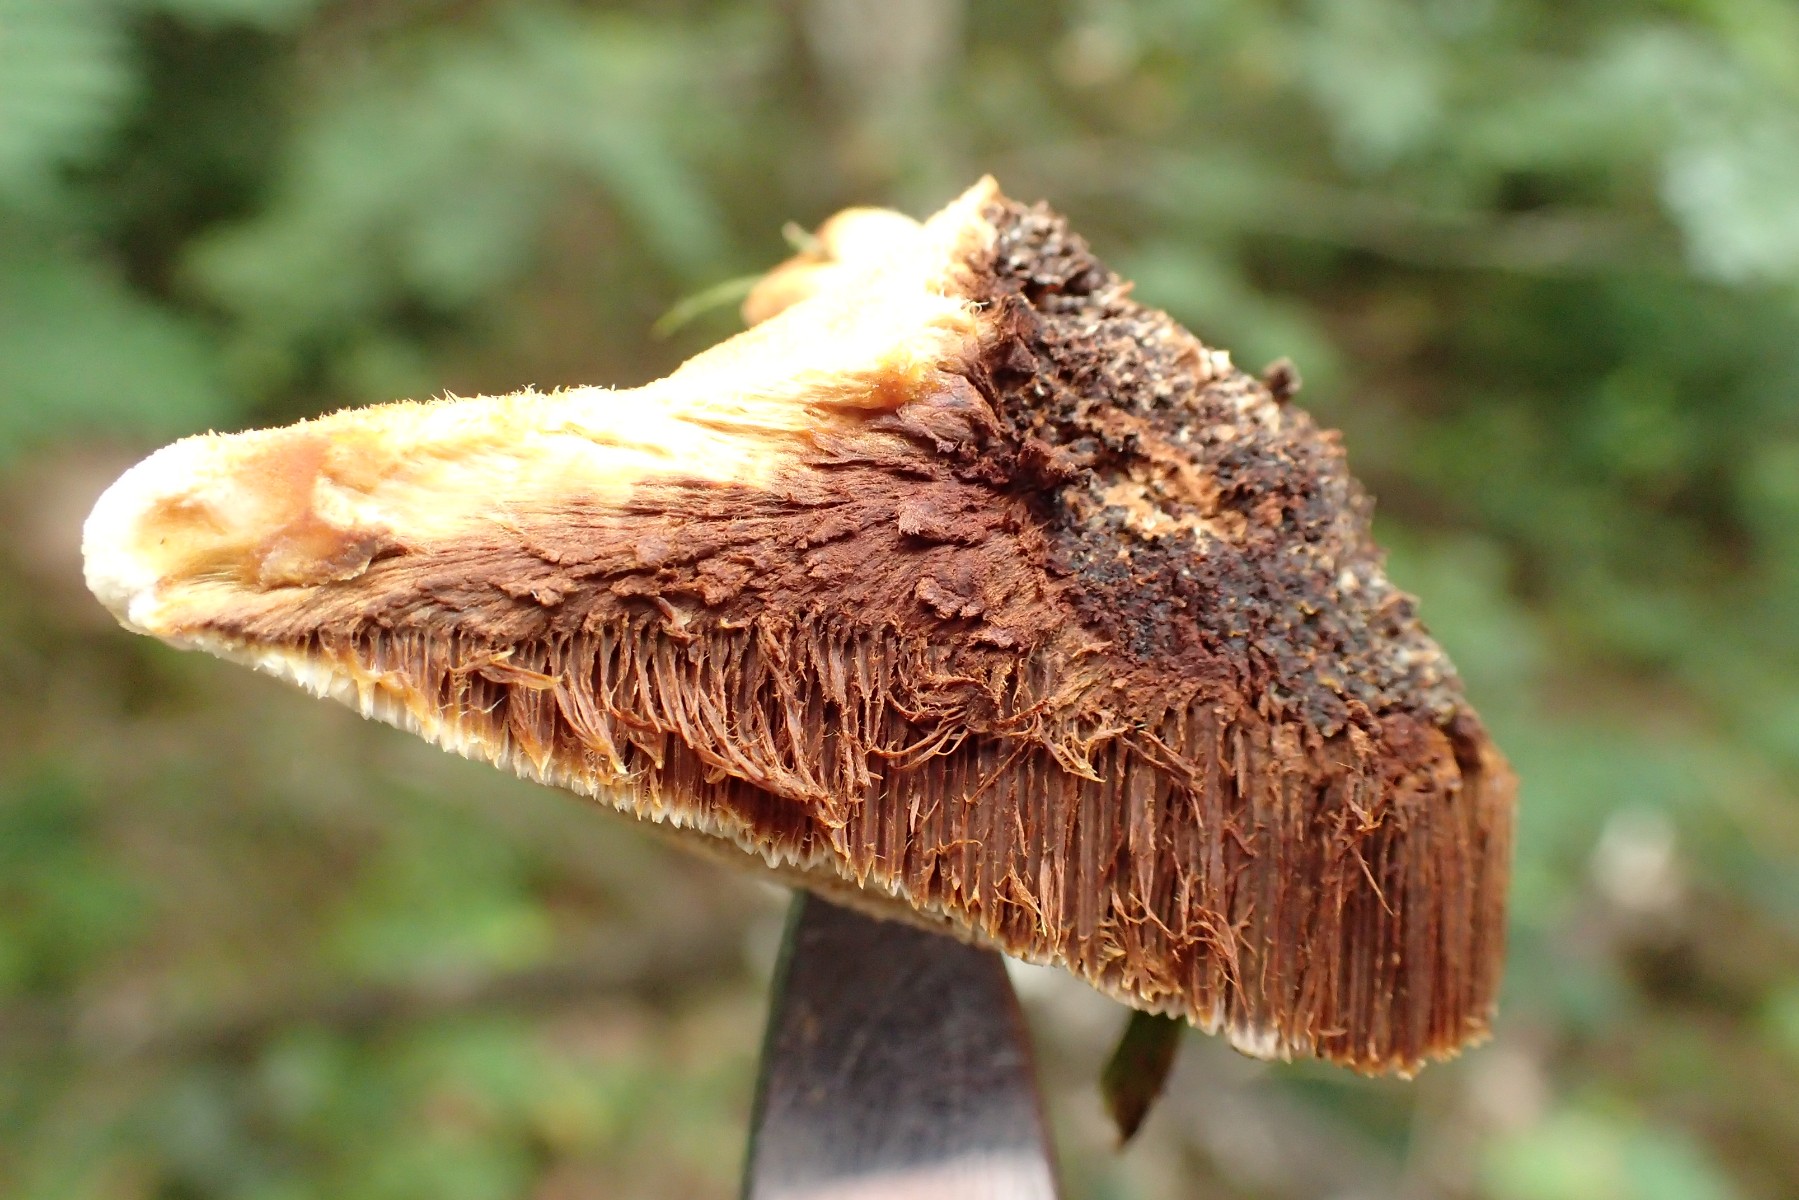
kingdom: Fungi
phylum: Basidiomycota
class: Agaricomycetes
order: Hymenochaetales
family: Hymenochaetaceae
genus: Inocutis
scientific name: Inocutis rheades
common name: ræve-spejlporesvamp
